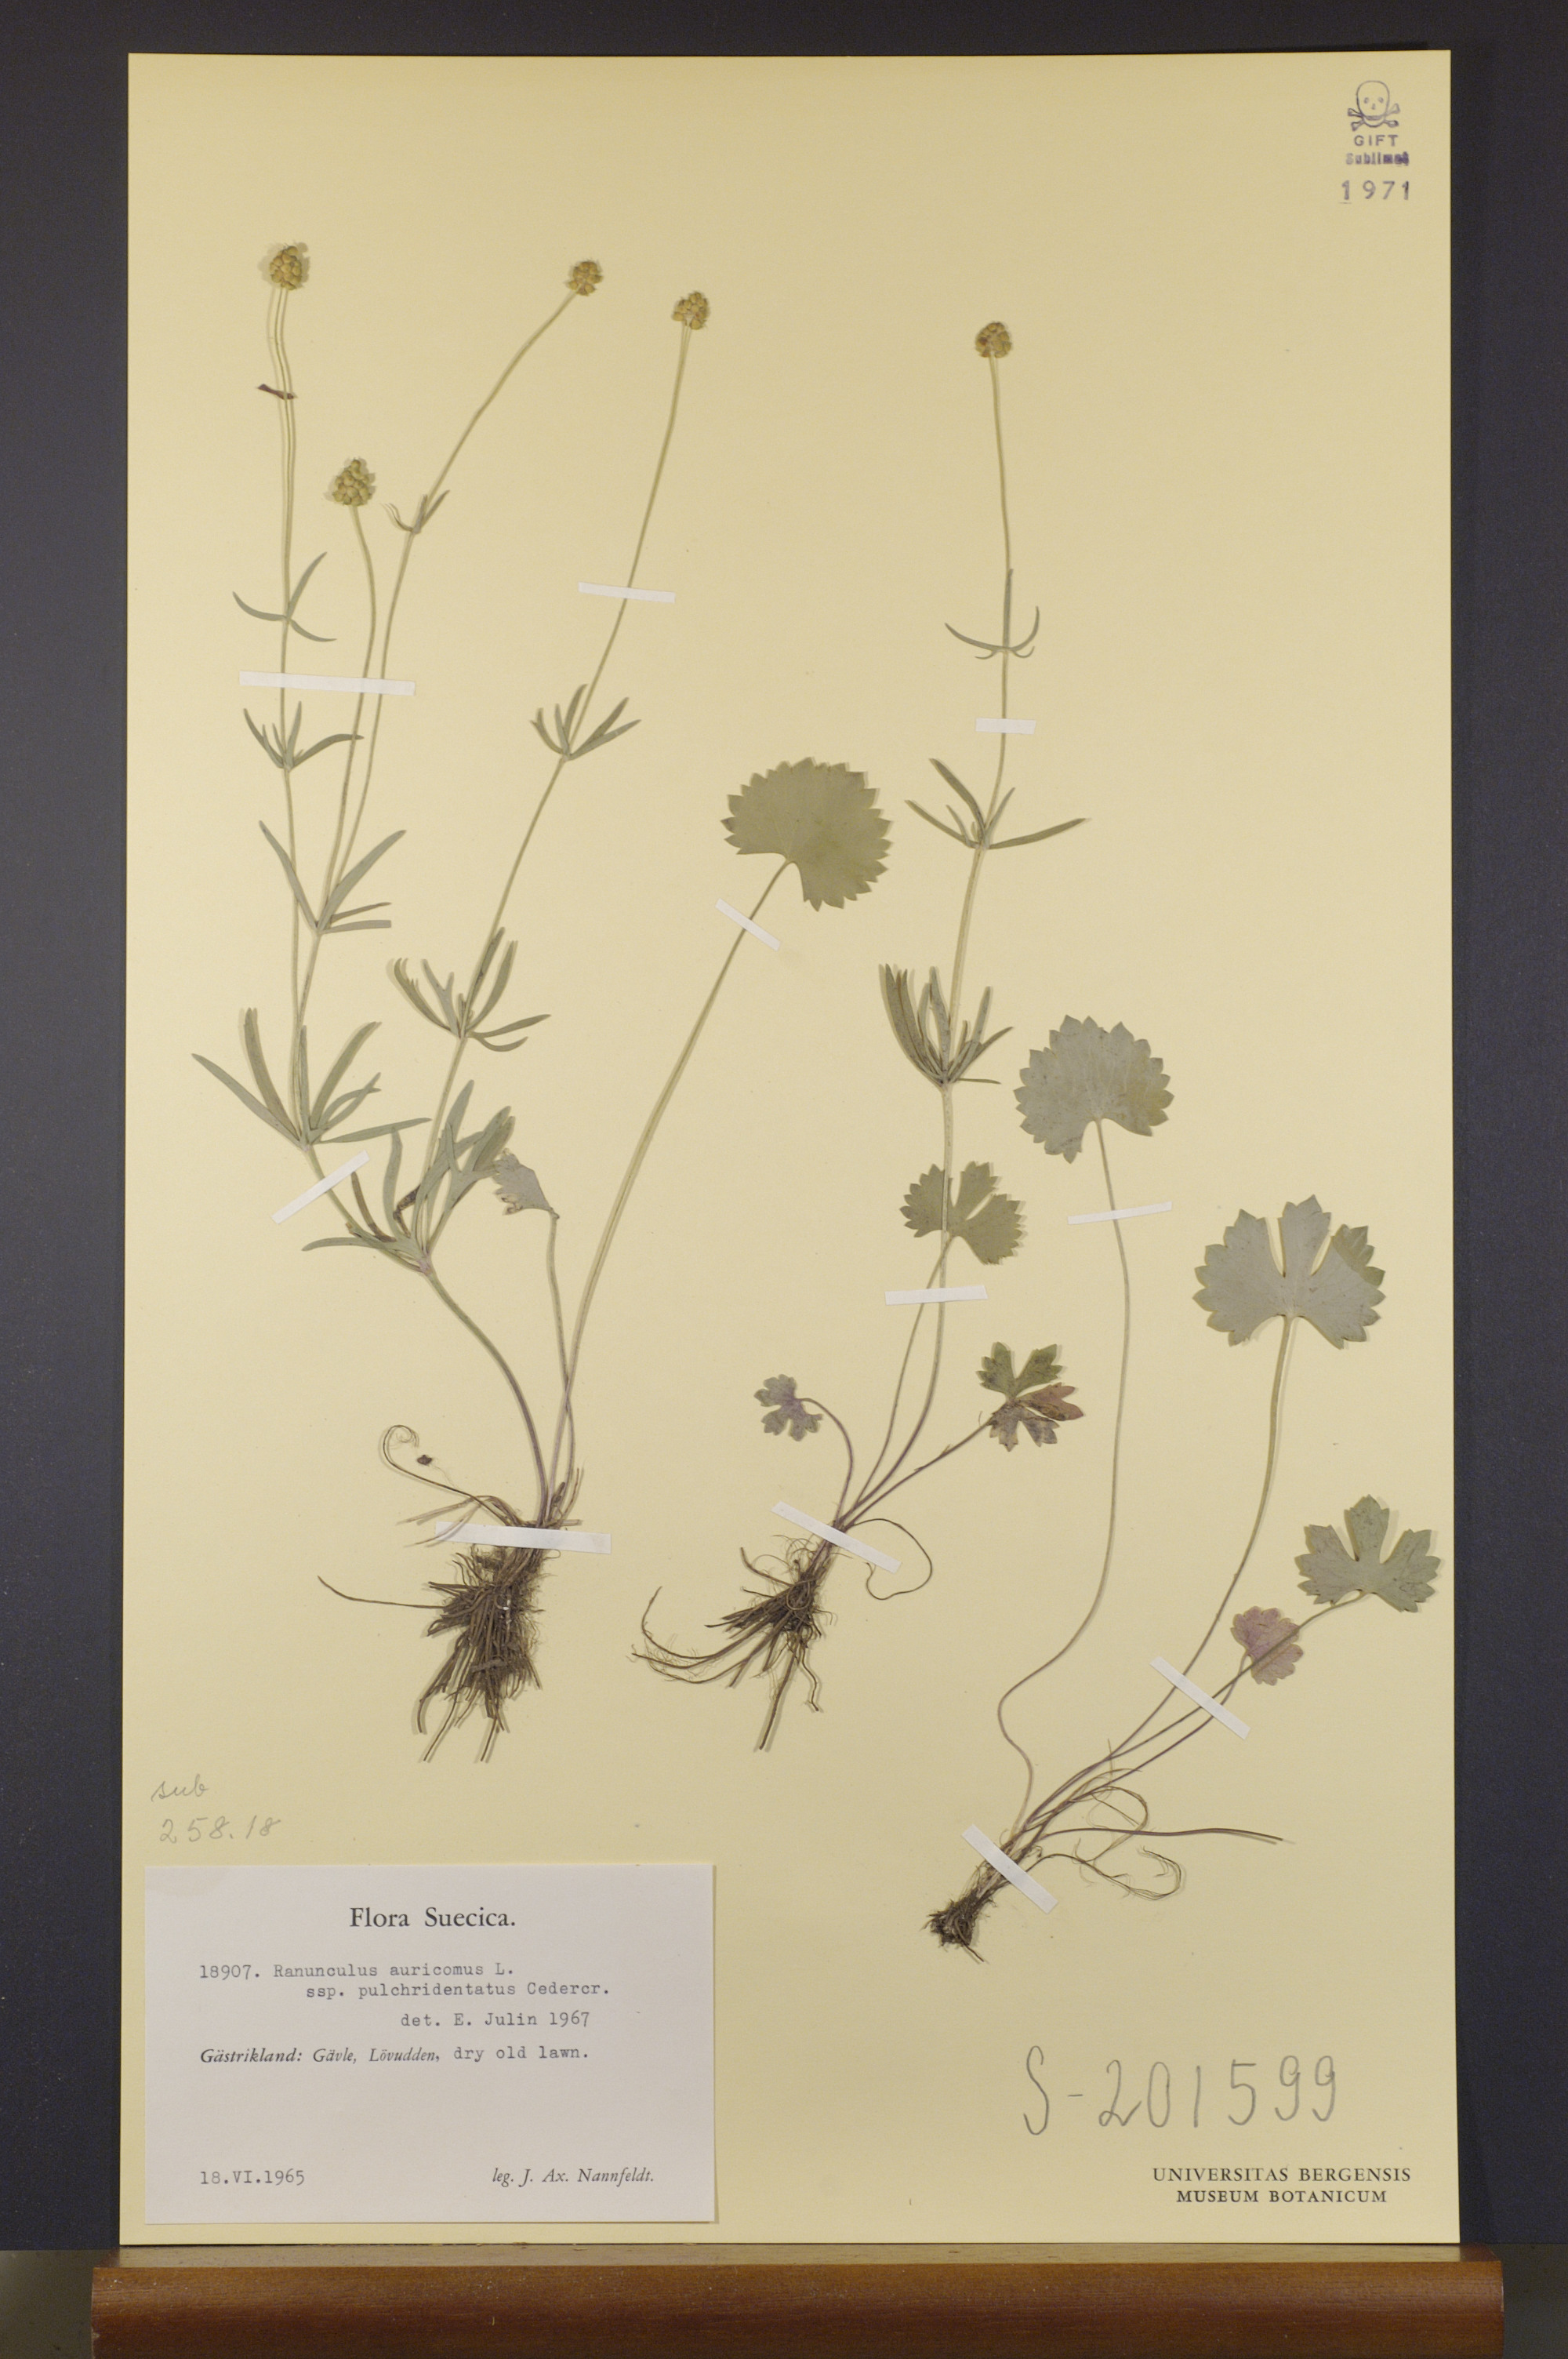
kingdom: Plantae
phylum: Tracheophyta
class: Magnoliopsida
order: Ranunculales
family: Ranunculaceae
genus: Ranunculus
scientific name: Ranunculus pulchridentatus
